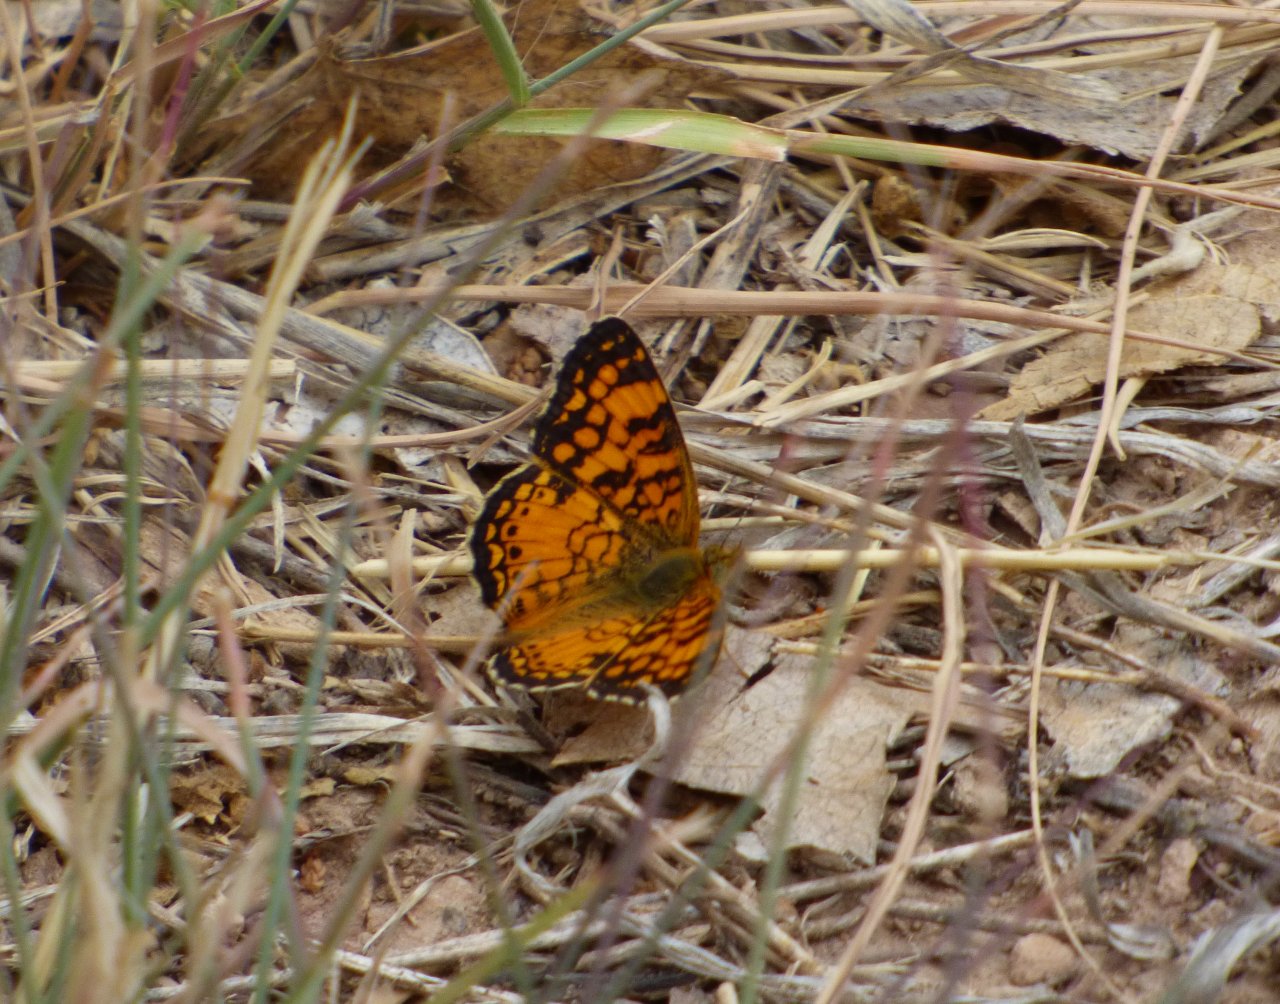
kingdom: Animalia
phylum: Arthropoda
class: Insecta
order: Lepidoptera
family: Nymphalidae
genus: Eresia
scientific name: Eresia aveyrona
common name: Mylitta Crescent
